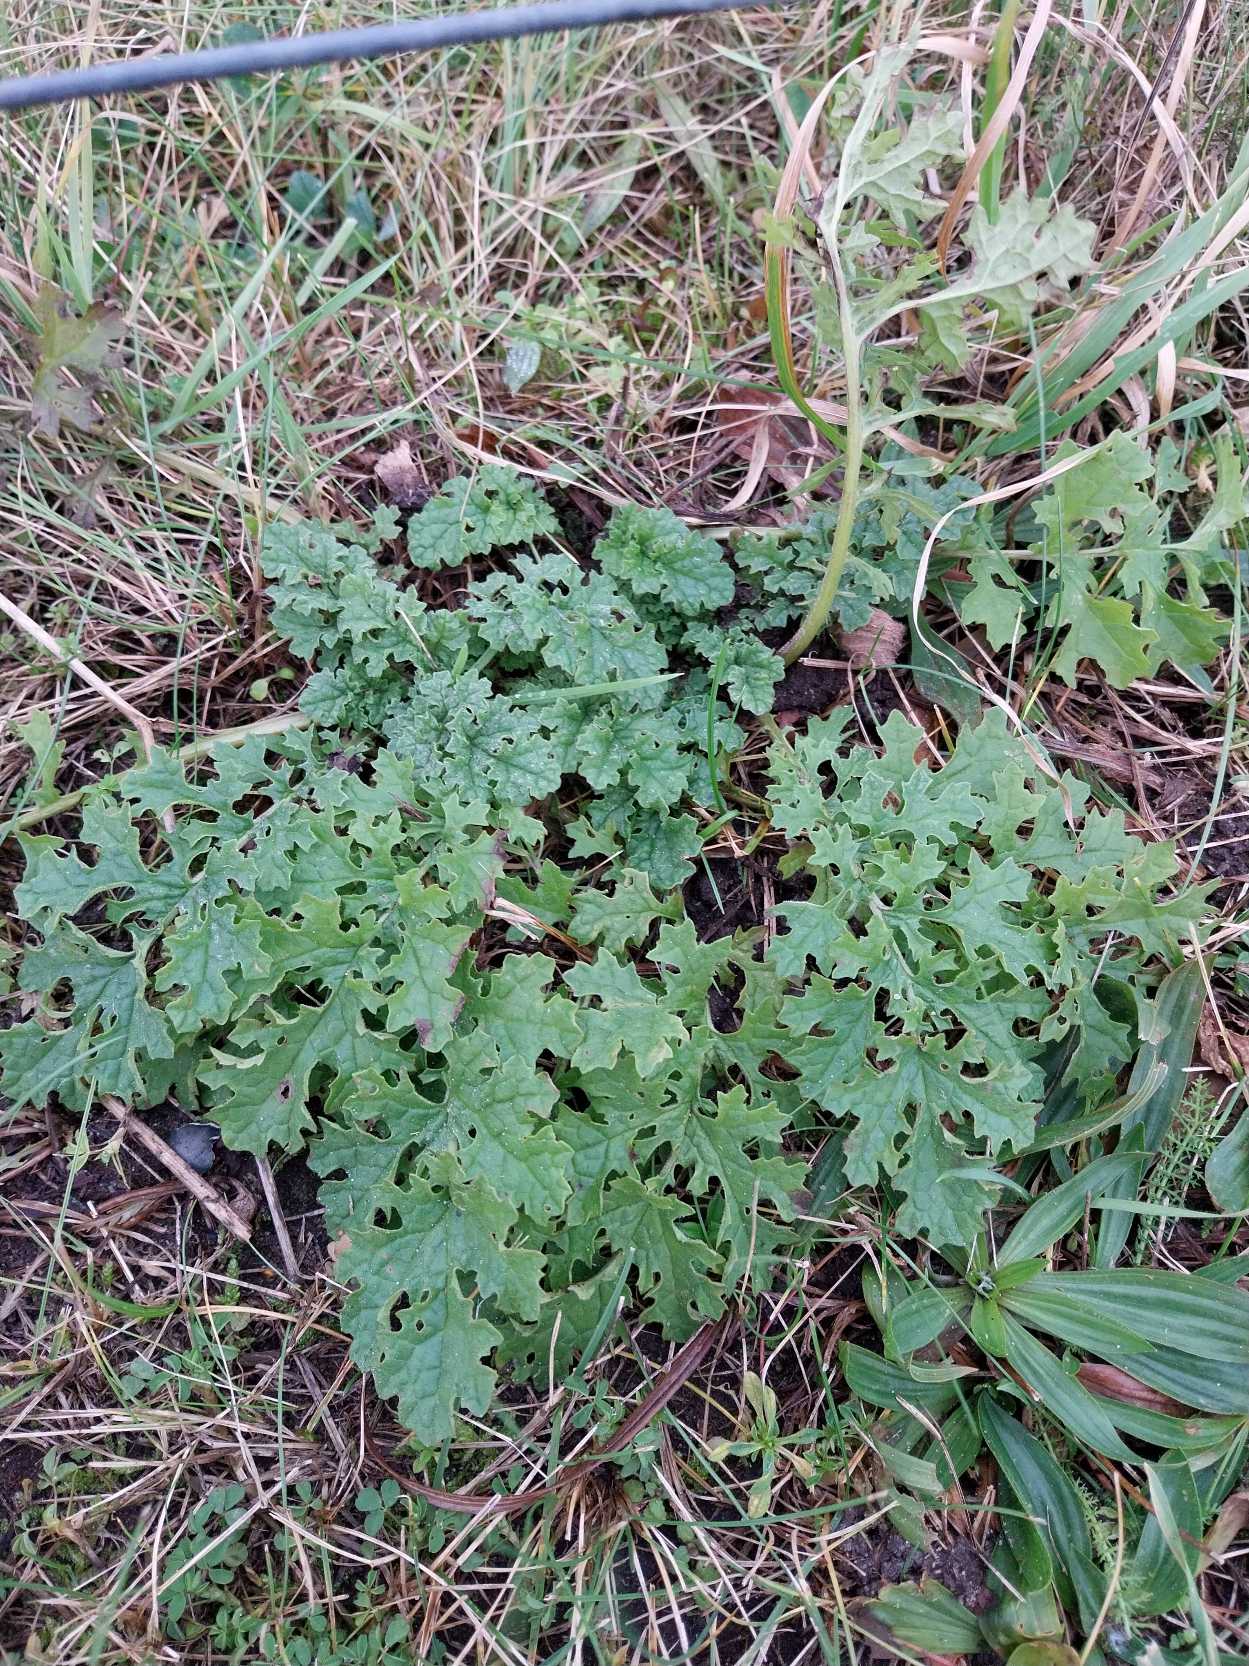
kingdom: Plantae
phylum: Tracheophyta
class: Magnoliopsida
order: Asterales
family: Asteraceae
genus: Jacobaea
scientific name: Jacobaea vulgaris
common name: Eng-brandbæger
